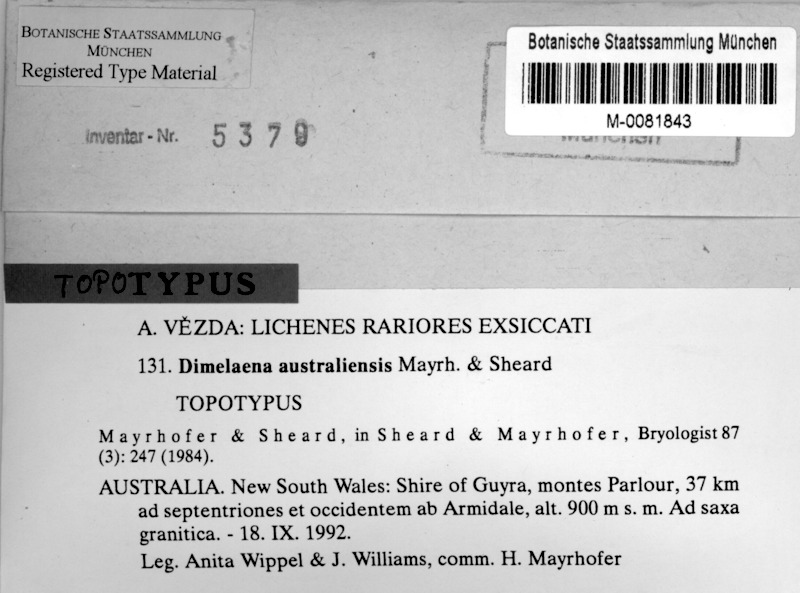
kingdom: Fungi
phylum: Ascomycota
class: Lecanoromycetes
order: Caliciales
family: Caliciaceae
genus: Dimelaena
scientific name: Dimelaena australiensis
